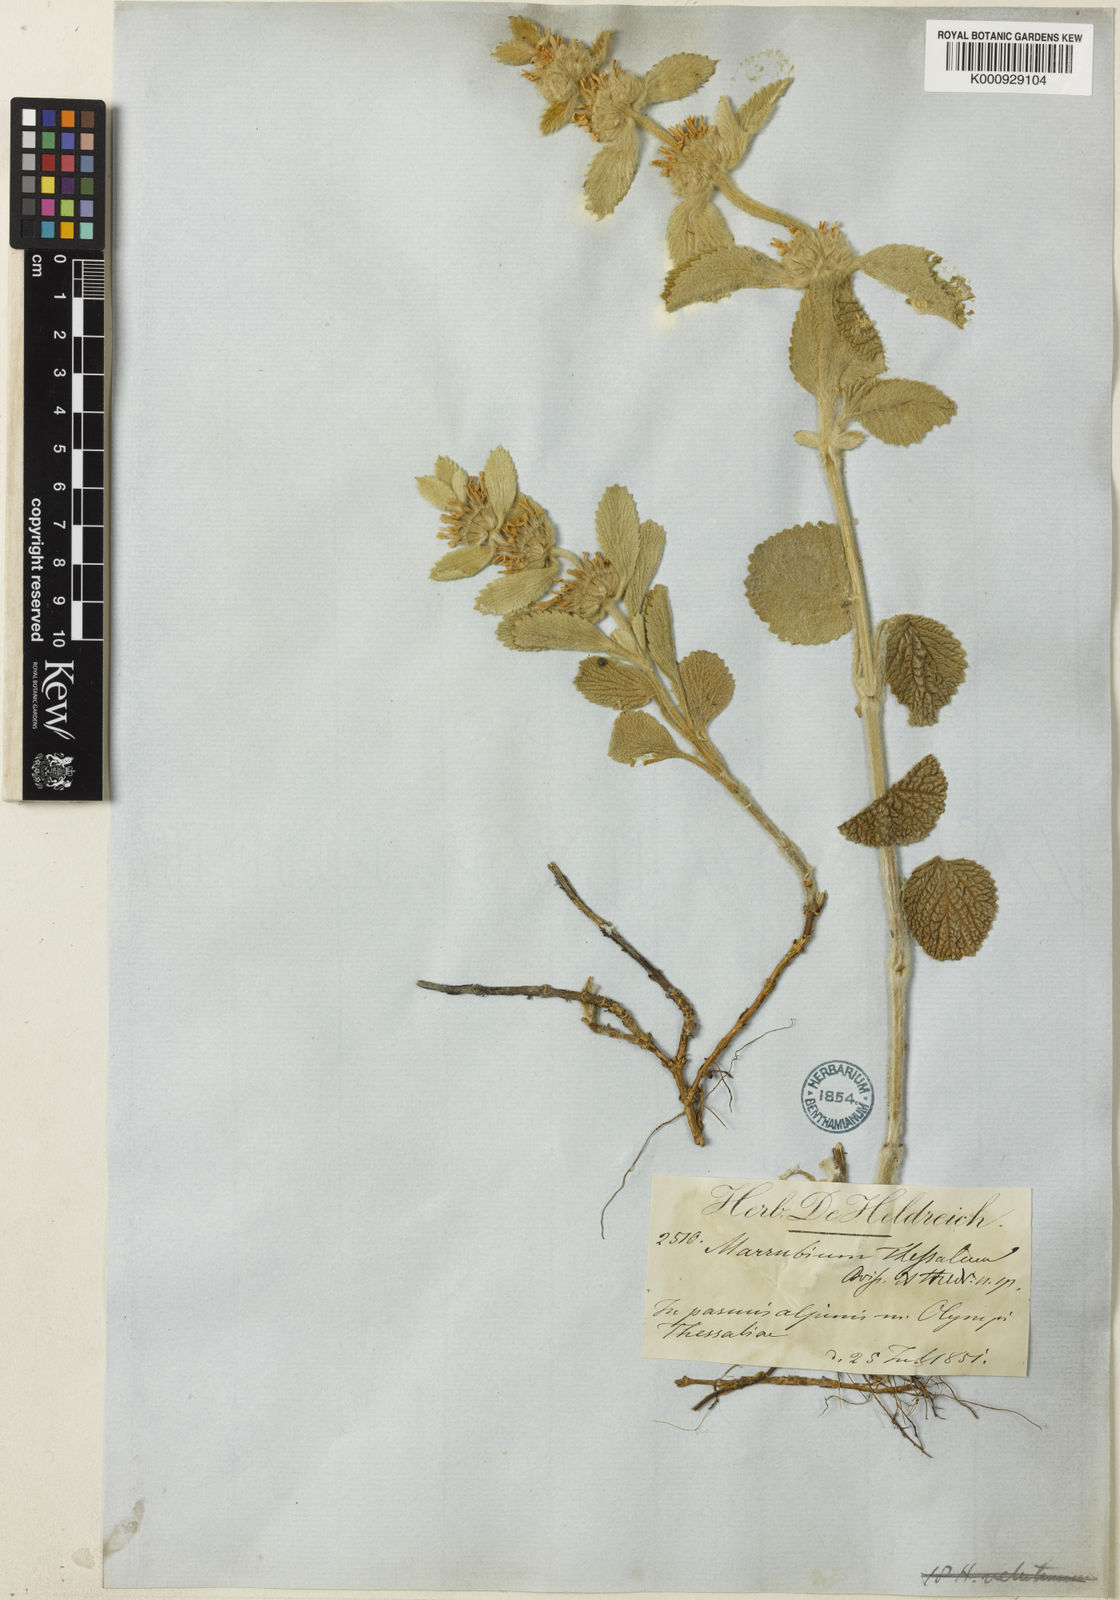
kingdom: Plantae
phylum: Tracheophyta
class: Magnoliopsida
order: Lamiales
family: Lamiaceae
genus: Marrubium
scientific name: Marrubium thessalum
